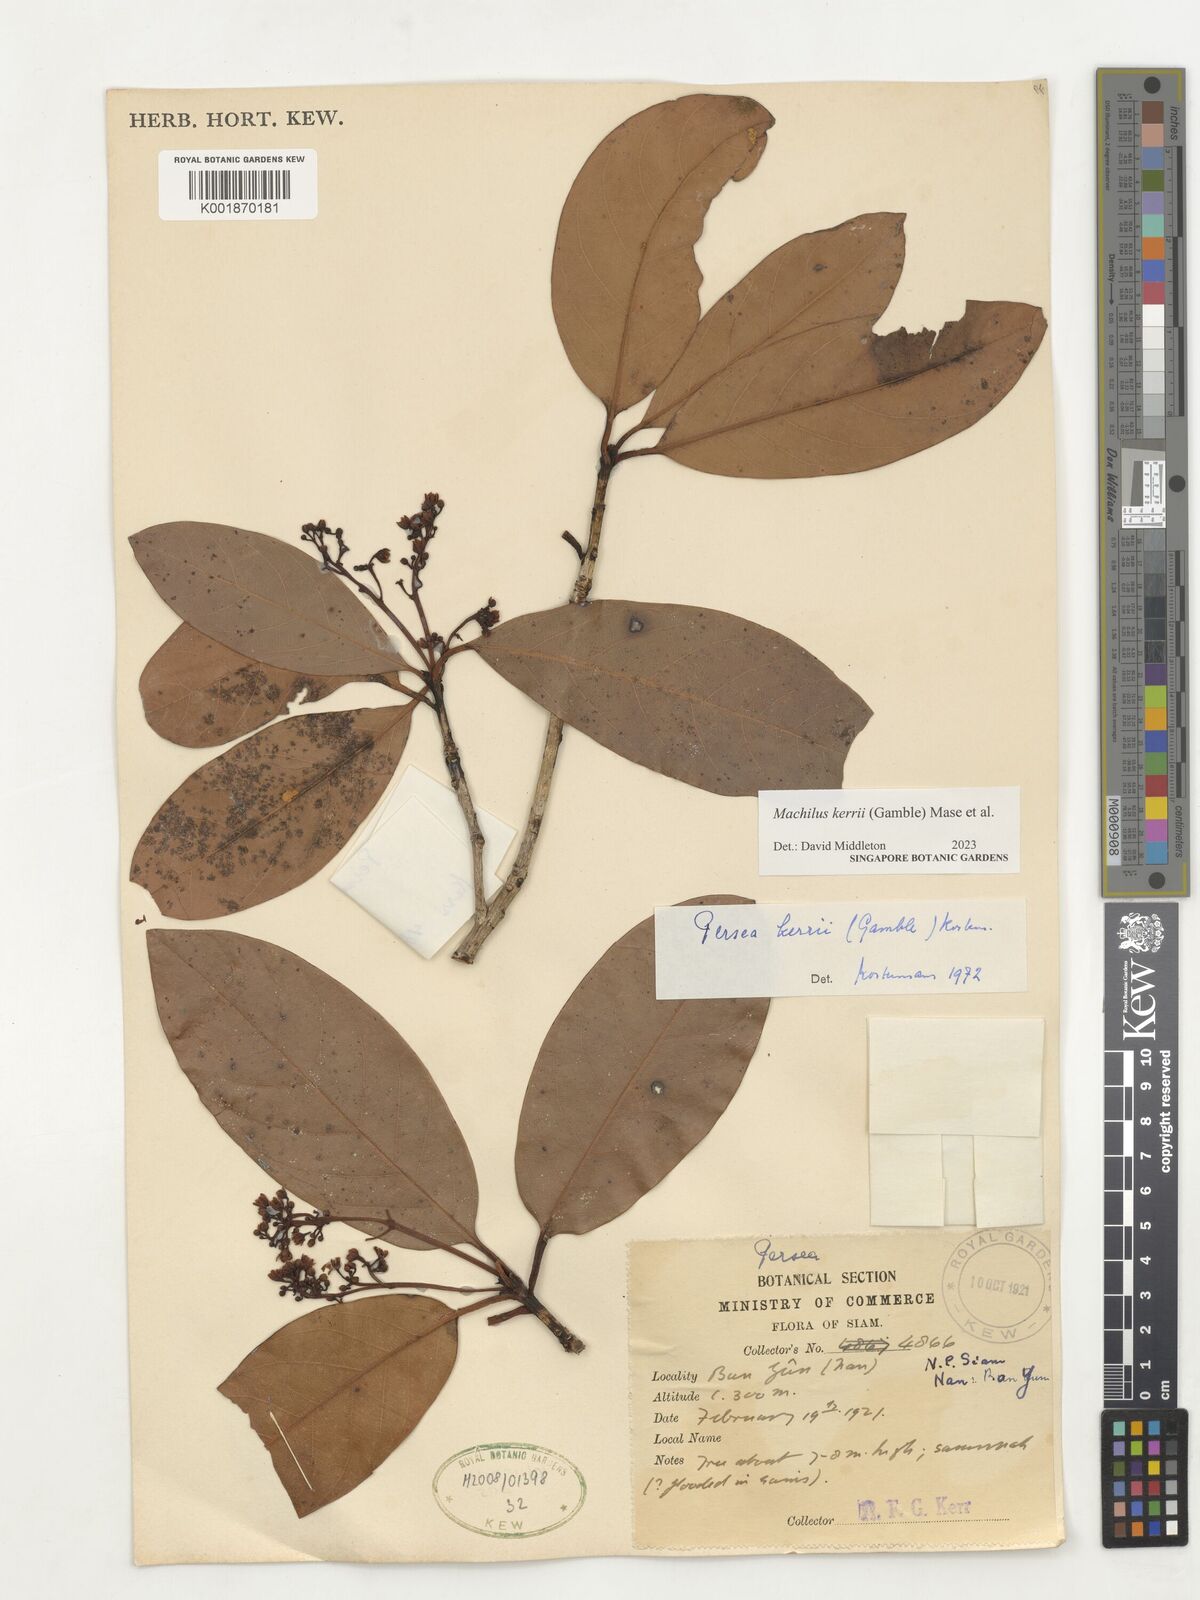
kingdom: Plantae
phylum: Tracheophyta
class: Magnoliopsida
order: Laurales
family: Lauraceae
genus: Machilus
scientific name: Machilus
